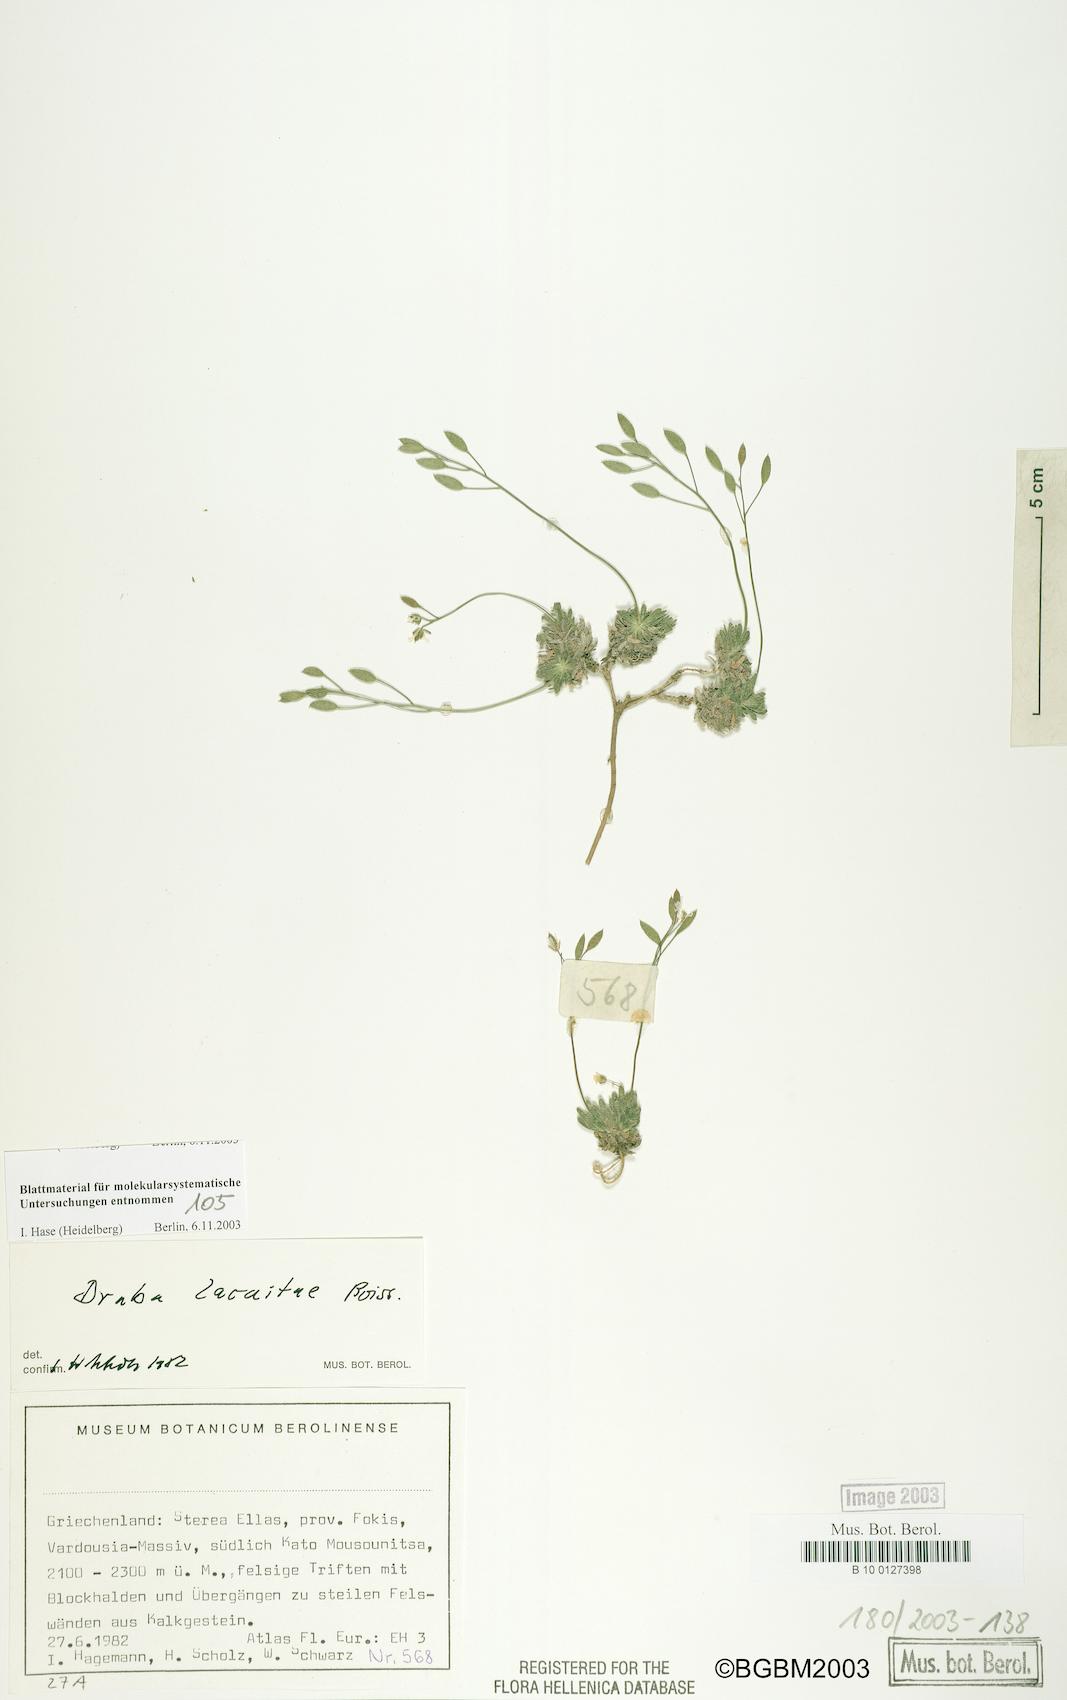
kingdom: Plantae
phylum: Tracheophyta
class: Magnoliopsida
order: Brassicales
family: Brassicaceae
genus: Draba
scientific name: Draba lacaitae
